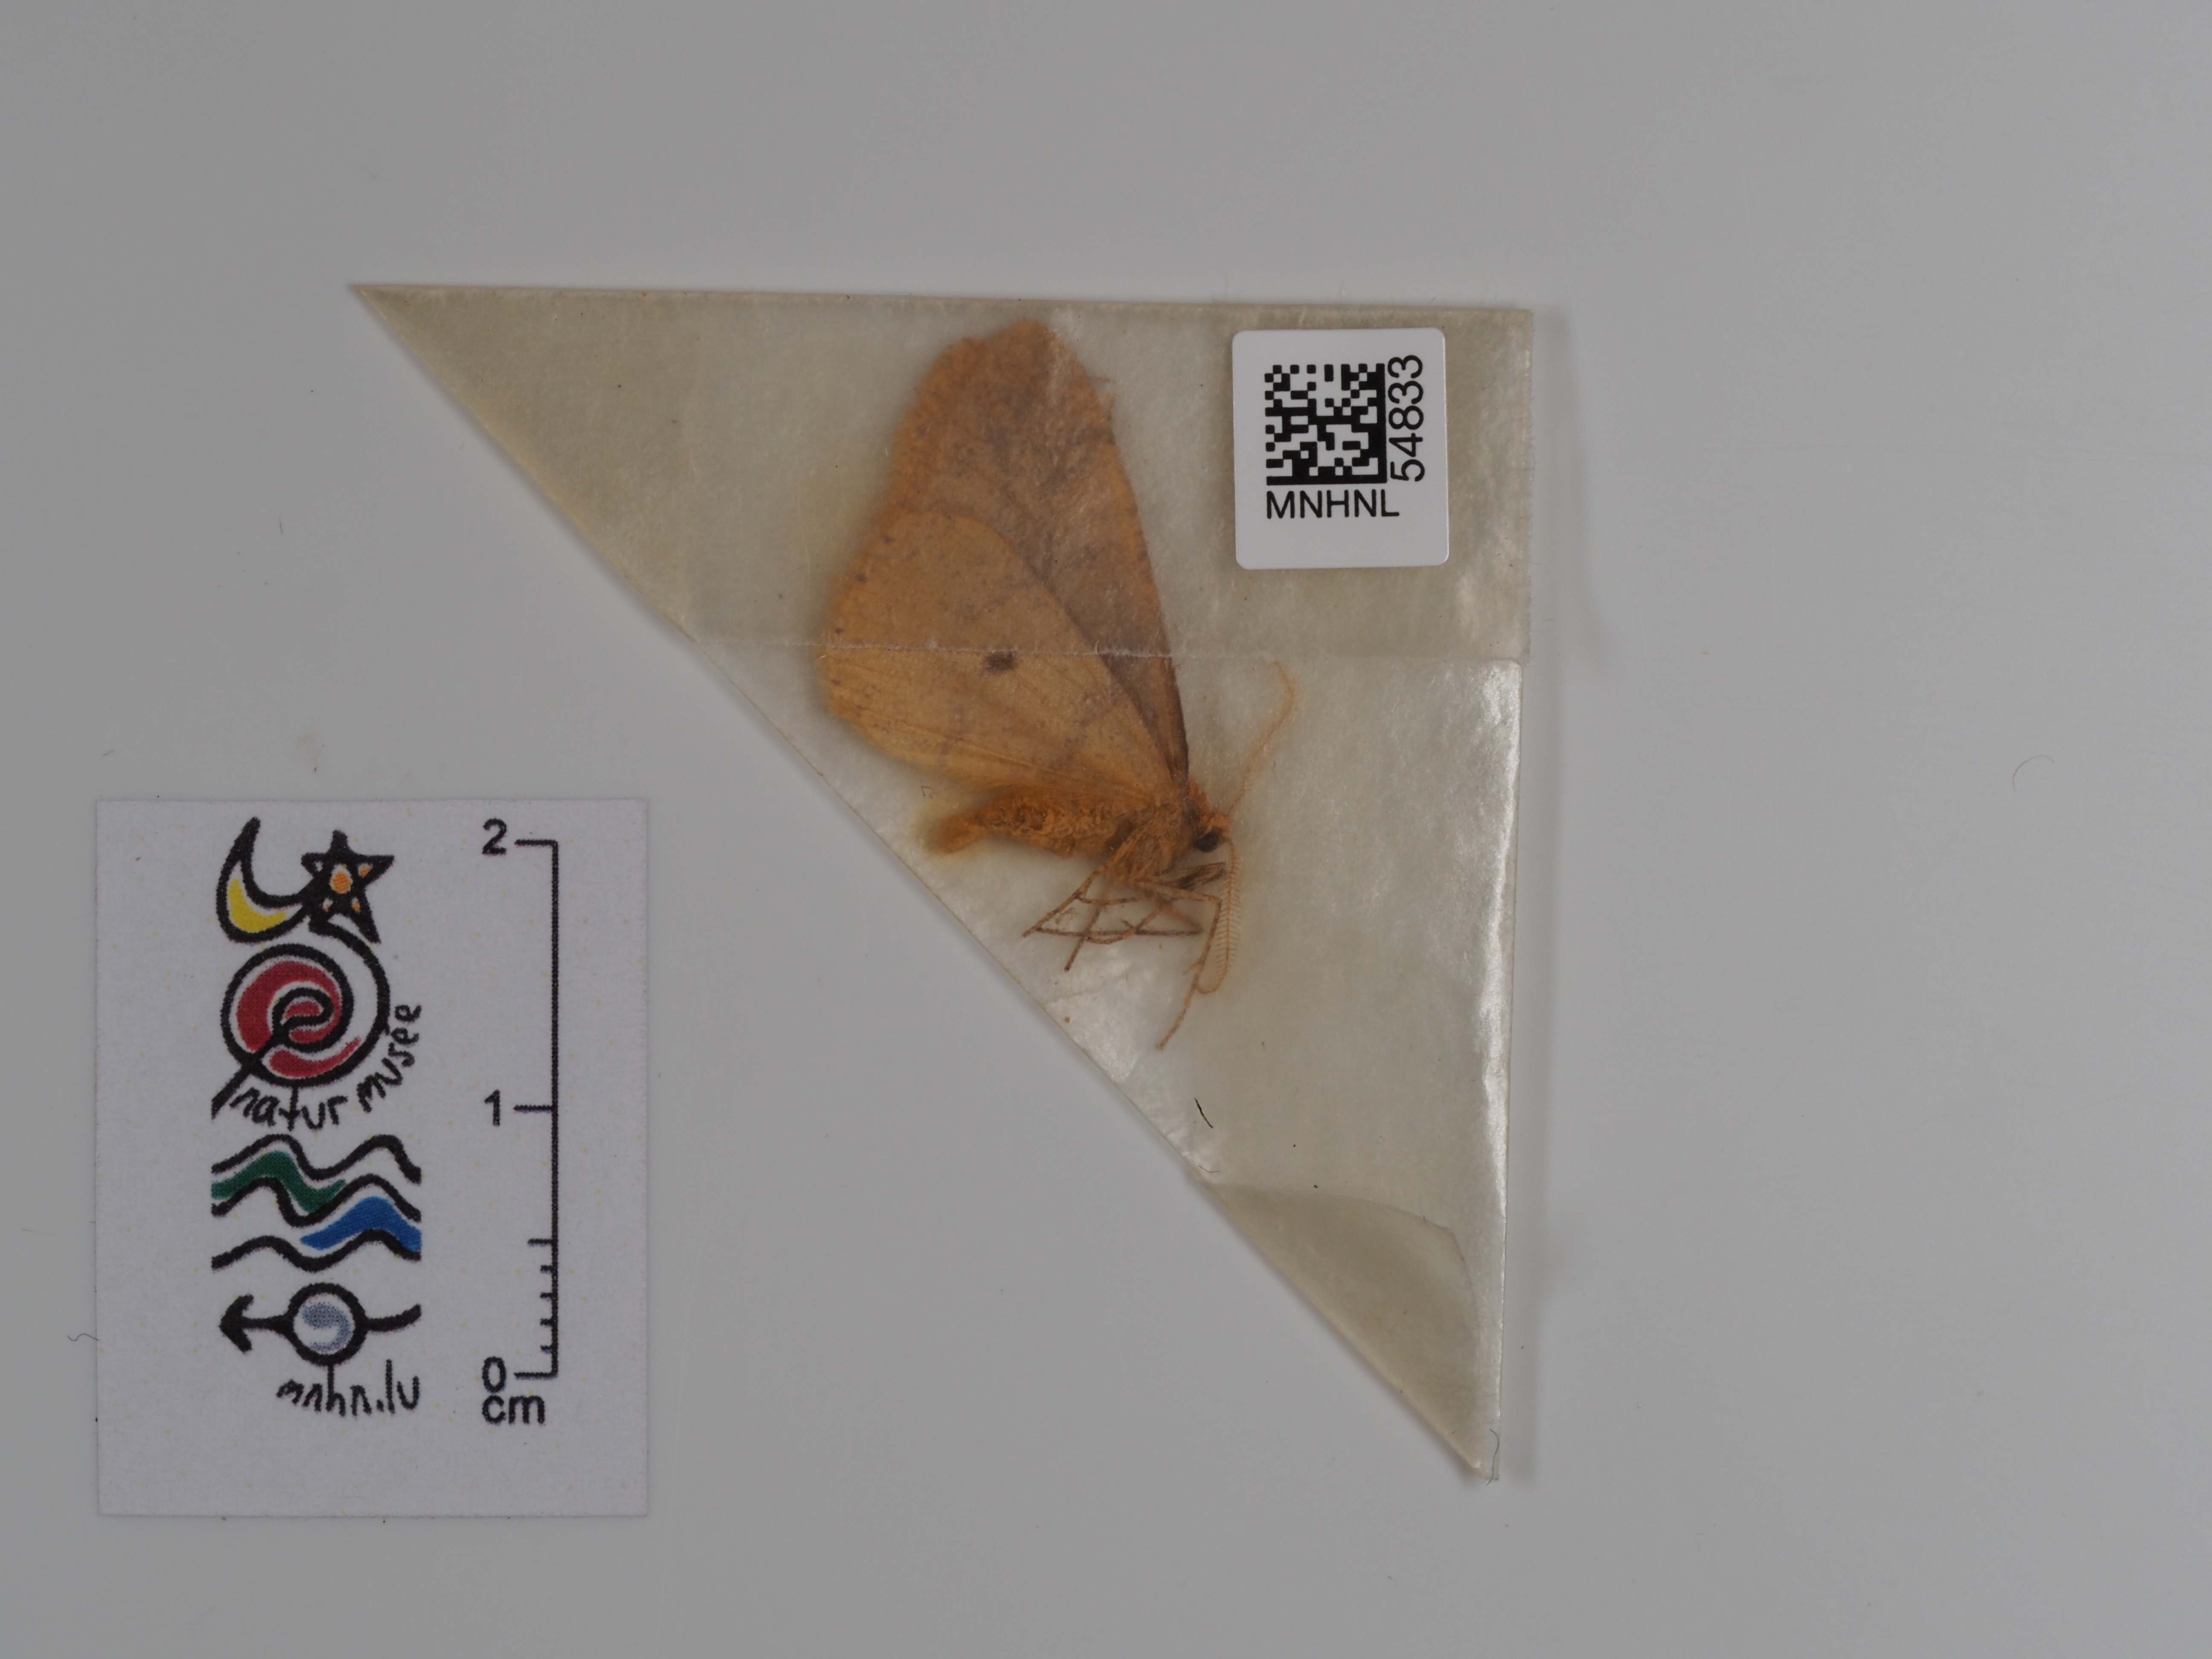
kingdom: Animalia
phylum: Arthropoda
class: Insecta
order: Lepidoptera
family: Geometridae
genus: Agriopis
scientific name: Agriopis aurantiaria
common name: Scarce umber
